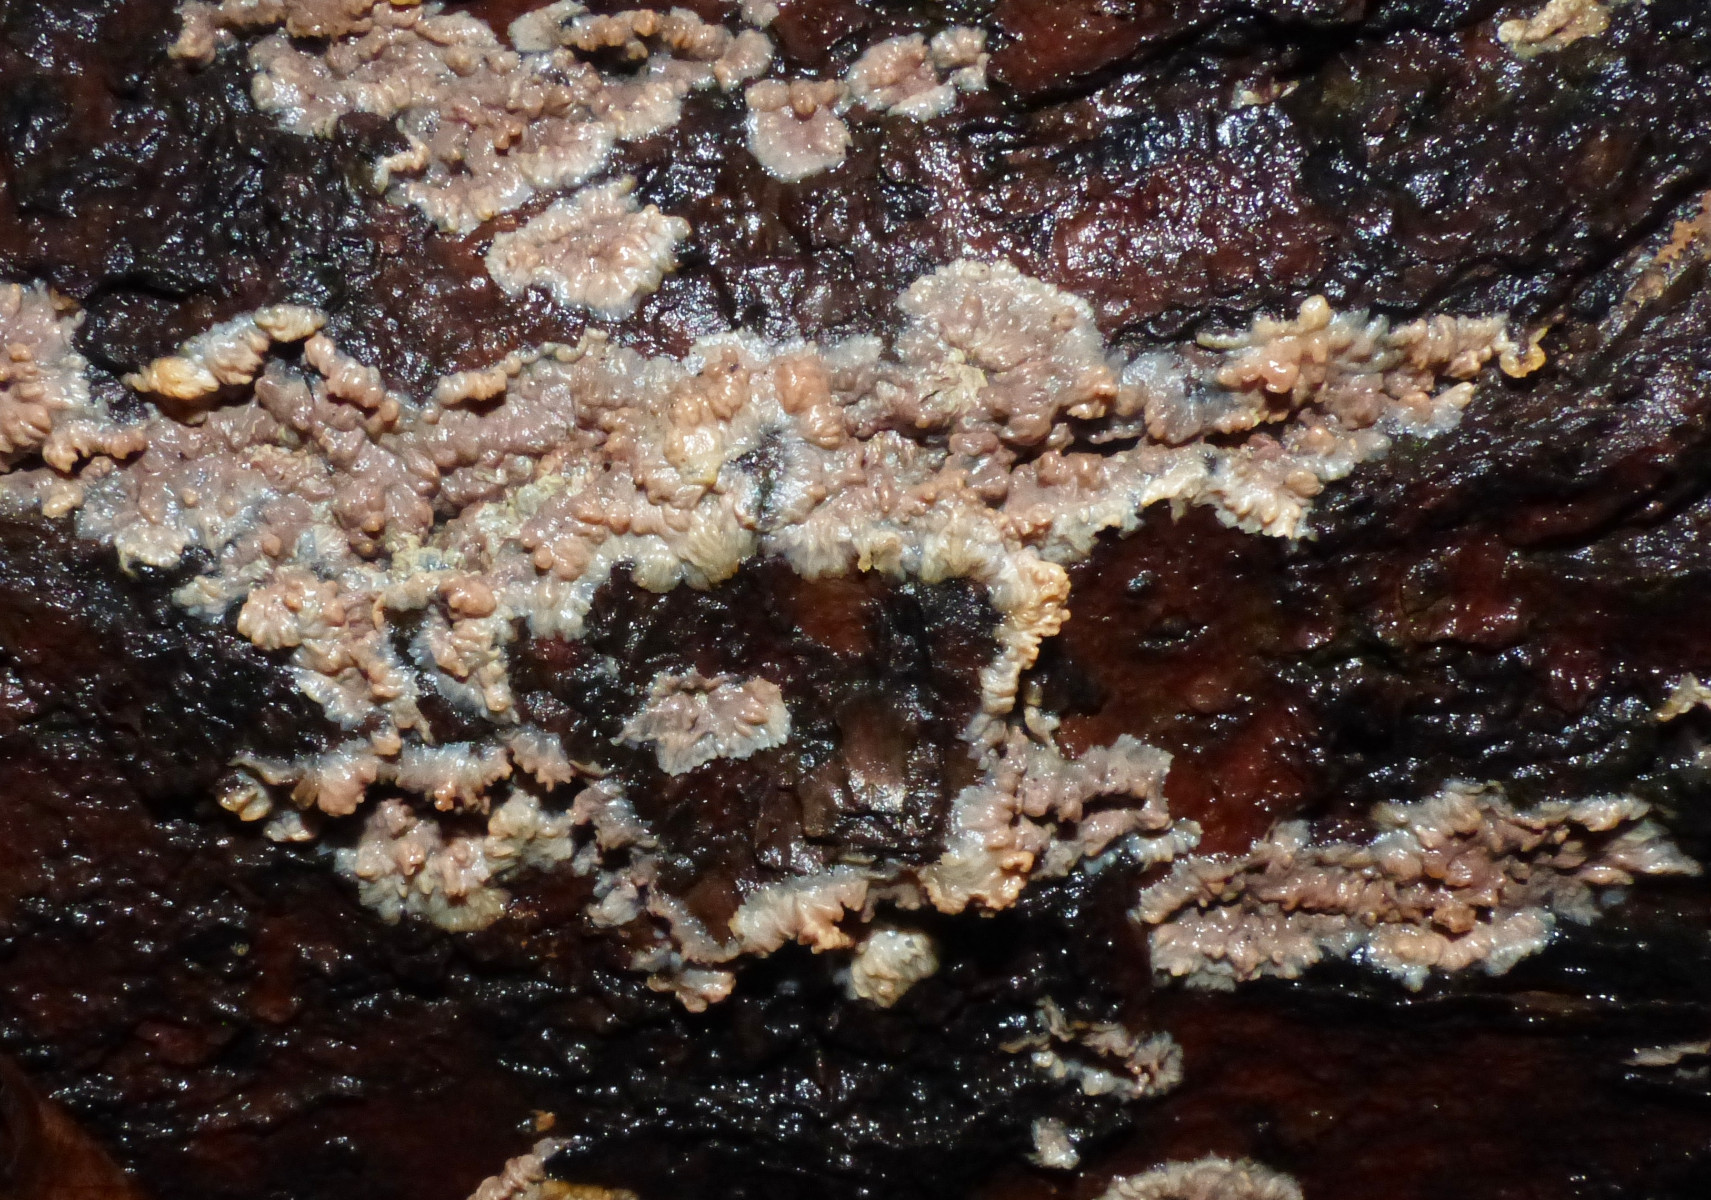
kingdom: Fungi
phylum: Basidiomycota
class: Agaricomycetes
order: Polyporales
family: Meruliaceae
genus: Phlebia
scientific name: Phlebia radiata
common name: stråle-åresvamp
